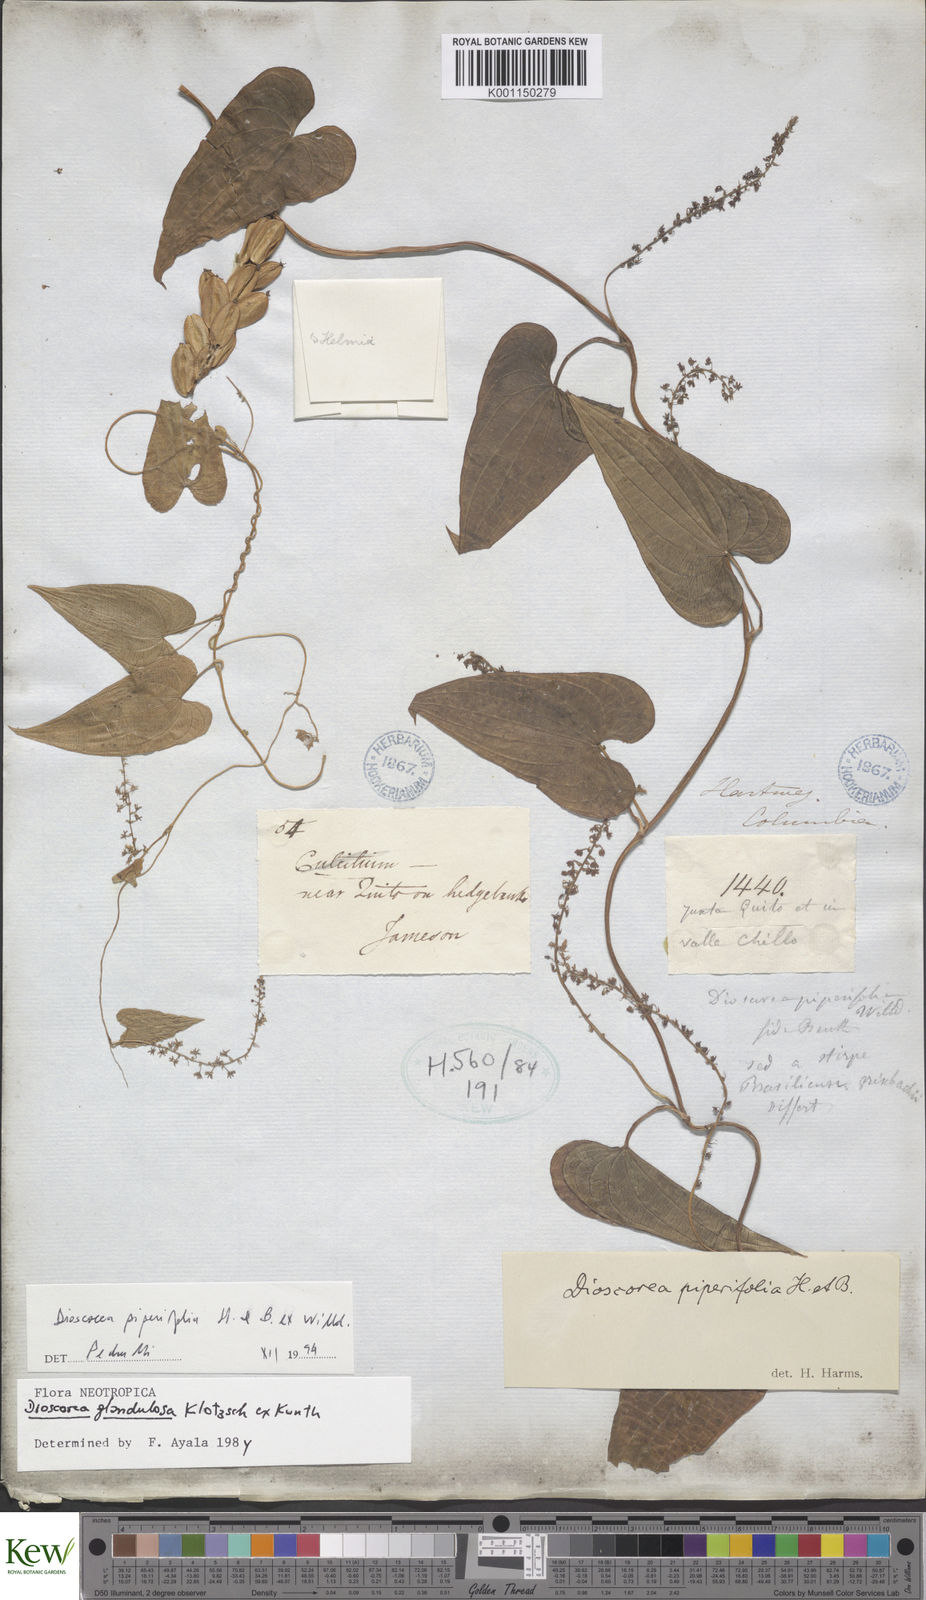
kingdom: Plantae
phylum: Tracheophyta
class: Liliopsida
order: Dioscoreales
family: Dioscoreaceae
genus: Dioscorea
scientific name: Dioscorea piperifolia
